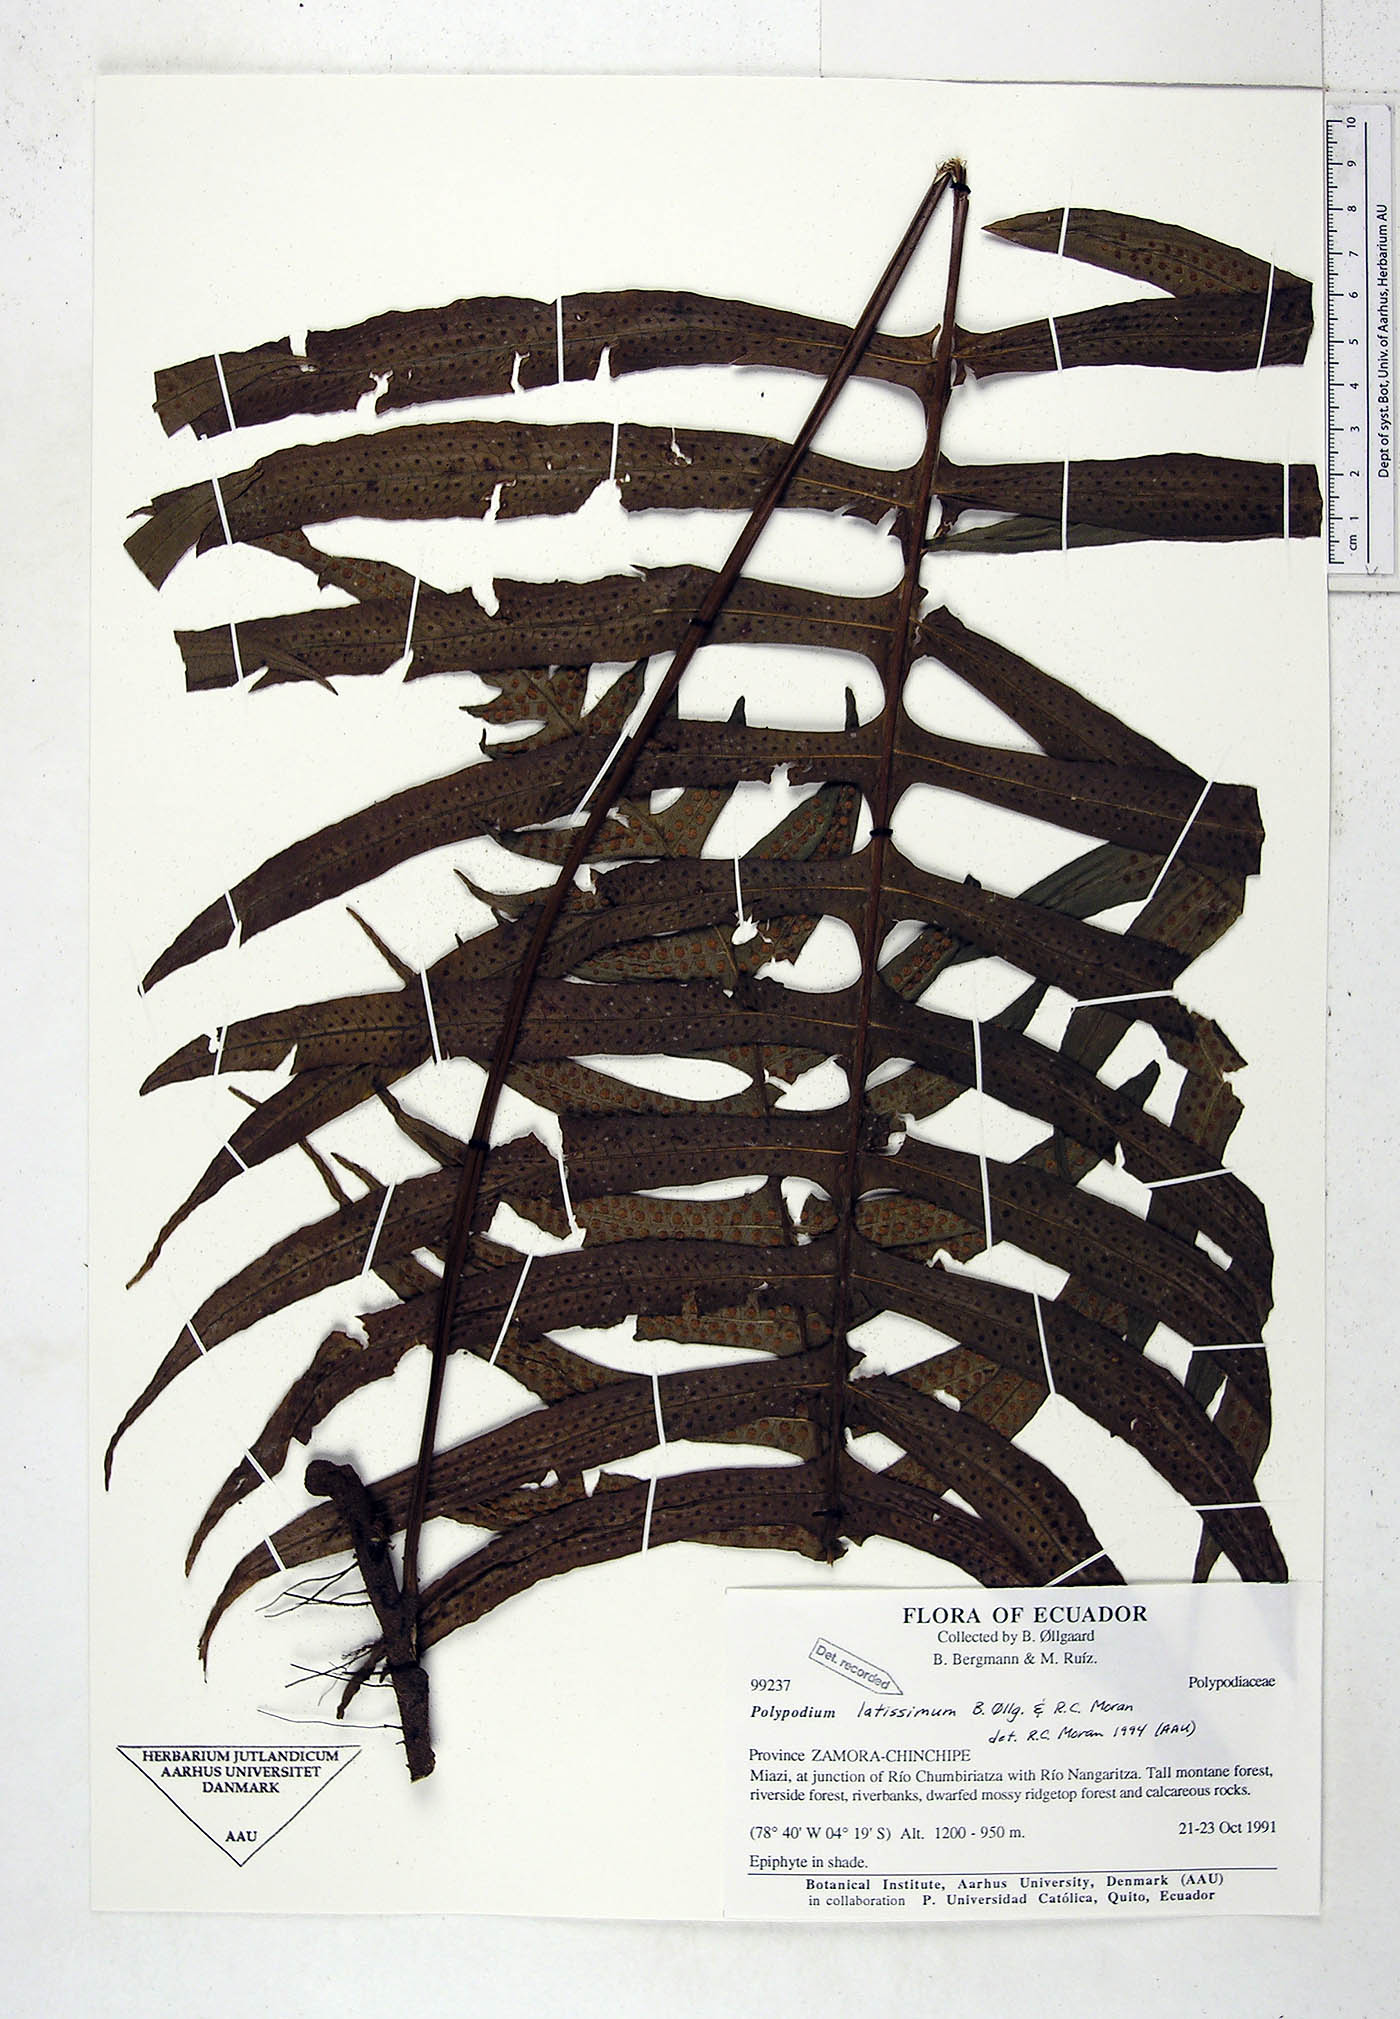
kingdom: Plantae
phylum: Tracheophyta
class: Polypodiopsida
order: Polypodiales
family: Polypodiaceae
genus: Serpocaulon
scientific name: Serpocaulon latissimum
